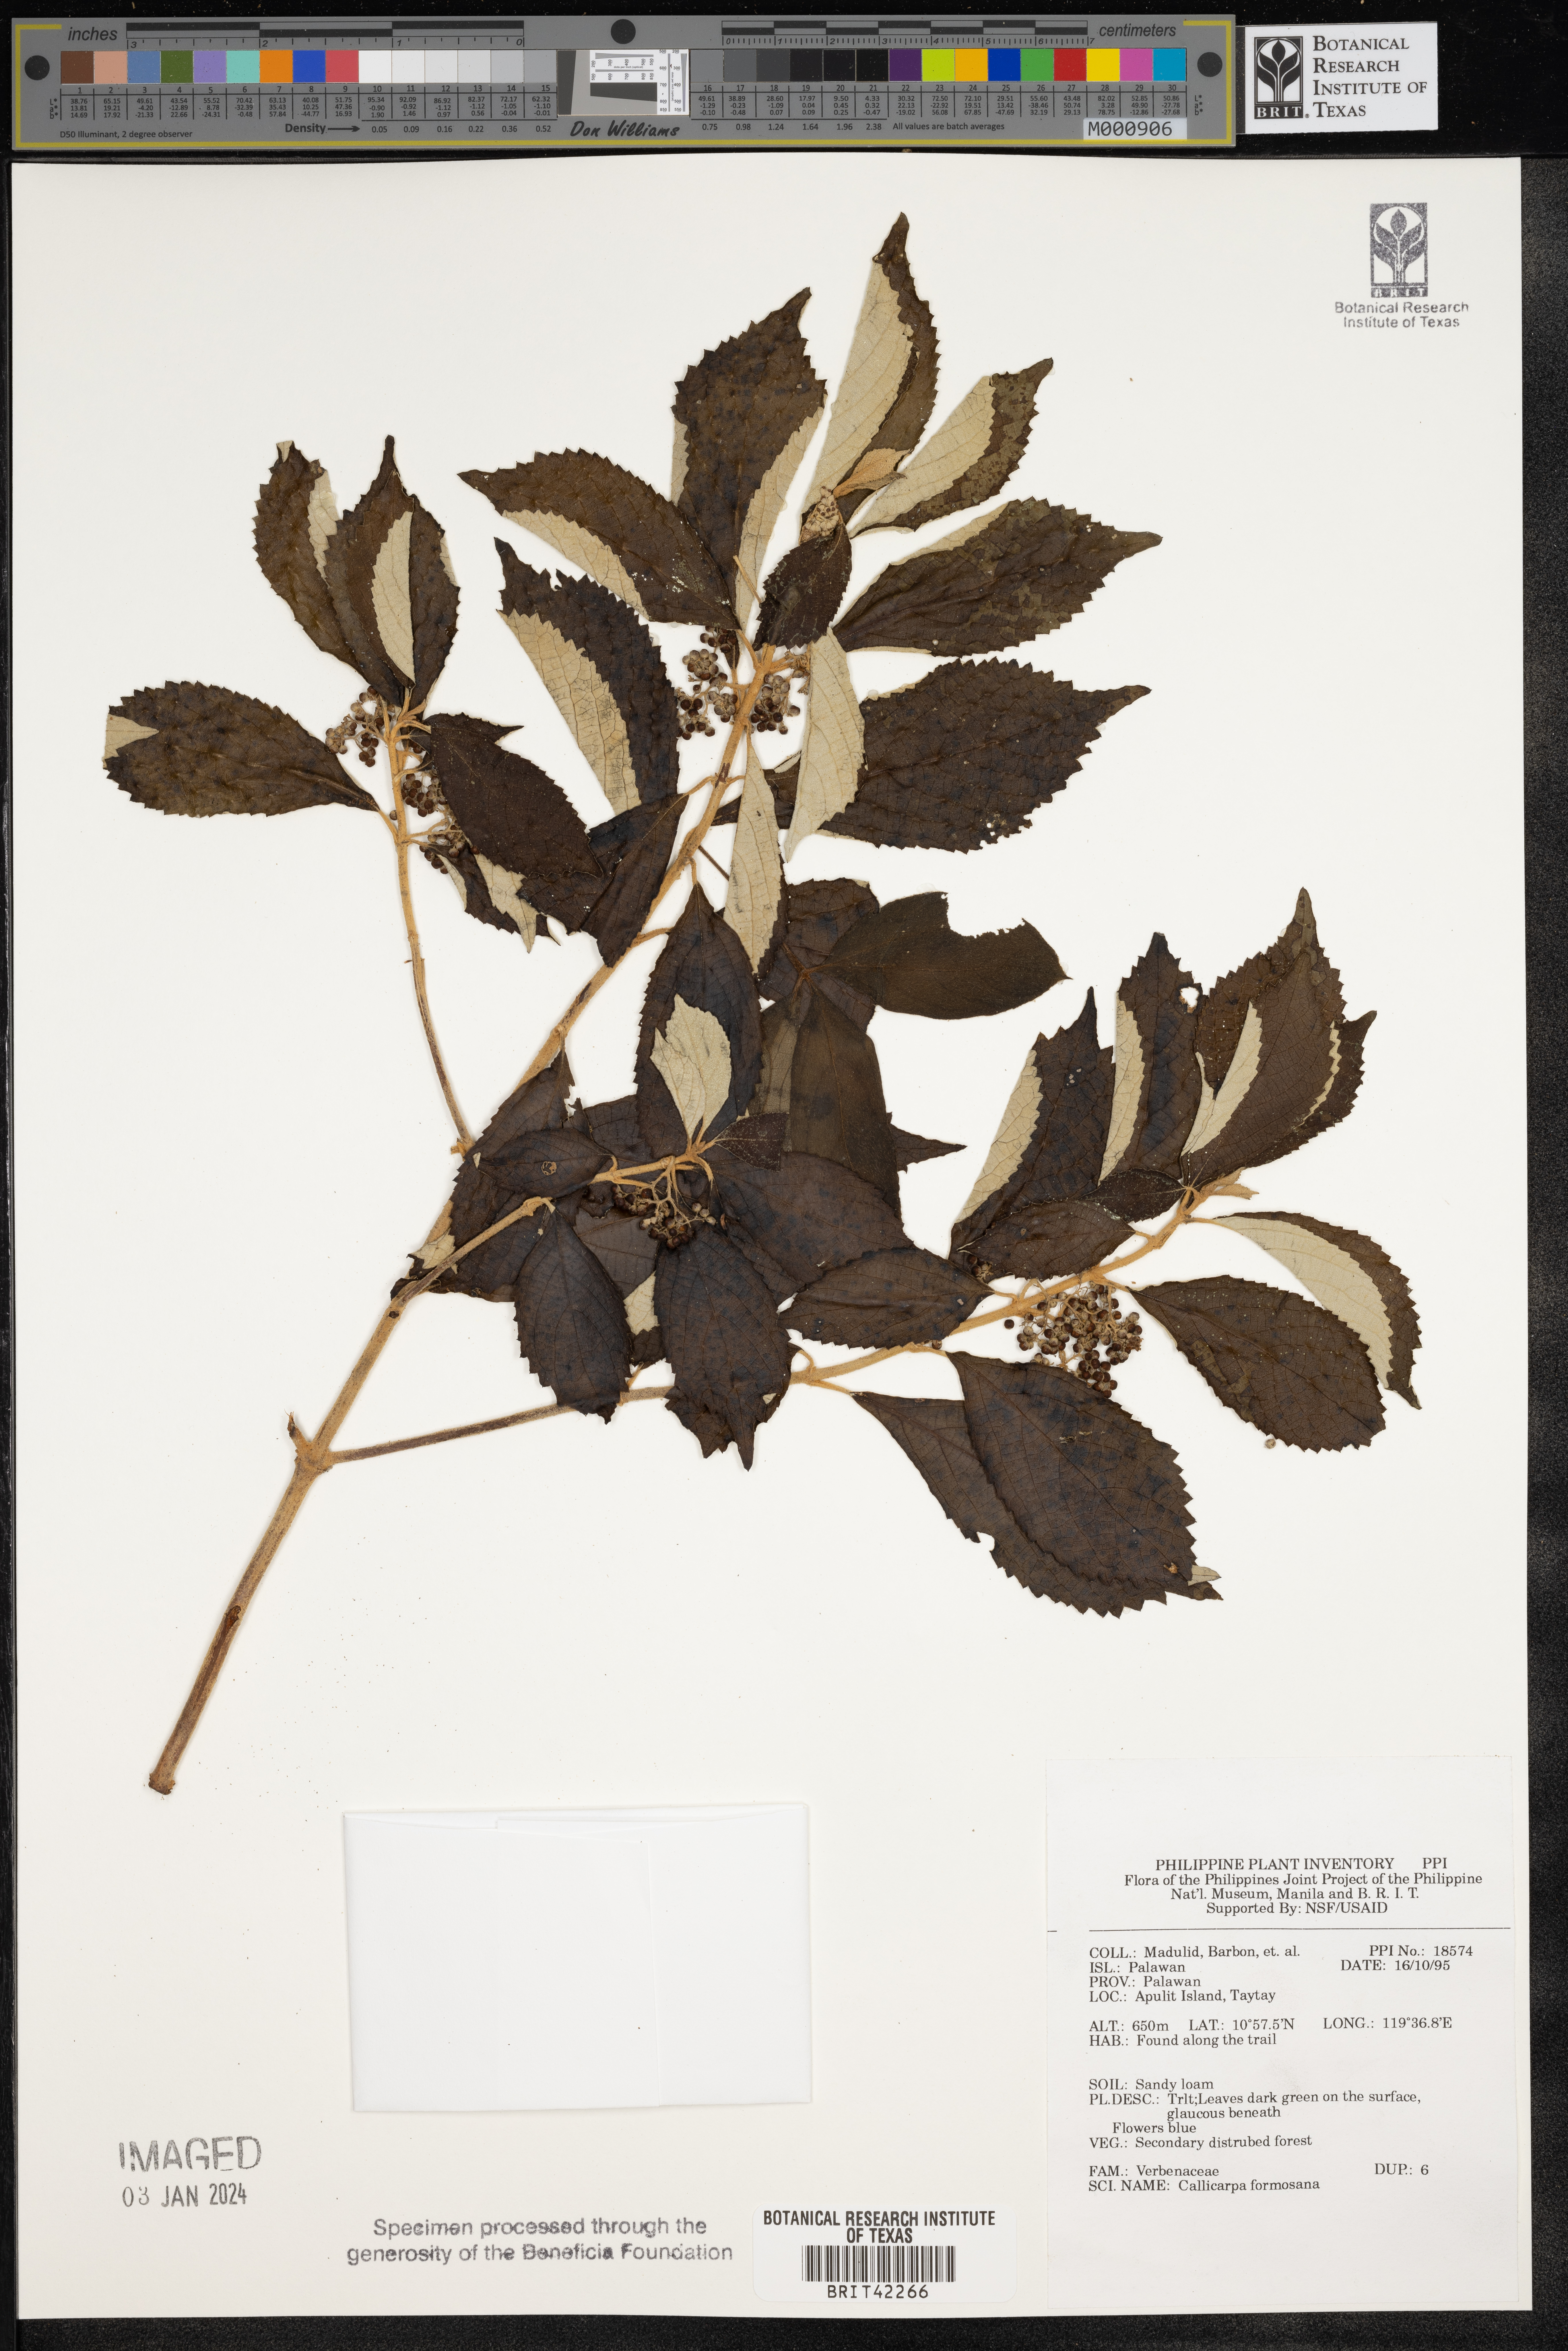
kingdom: Plantae
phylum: Tracheophyta
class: Magnoliopsida
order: Lamiales
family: Lamiaceae
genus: Callicarpa
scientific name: Callicarpa pedunculata
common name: Velvetleaf
